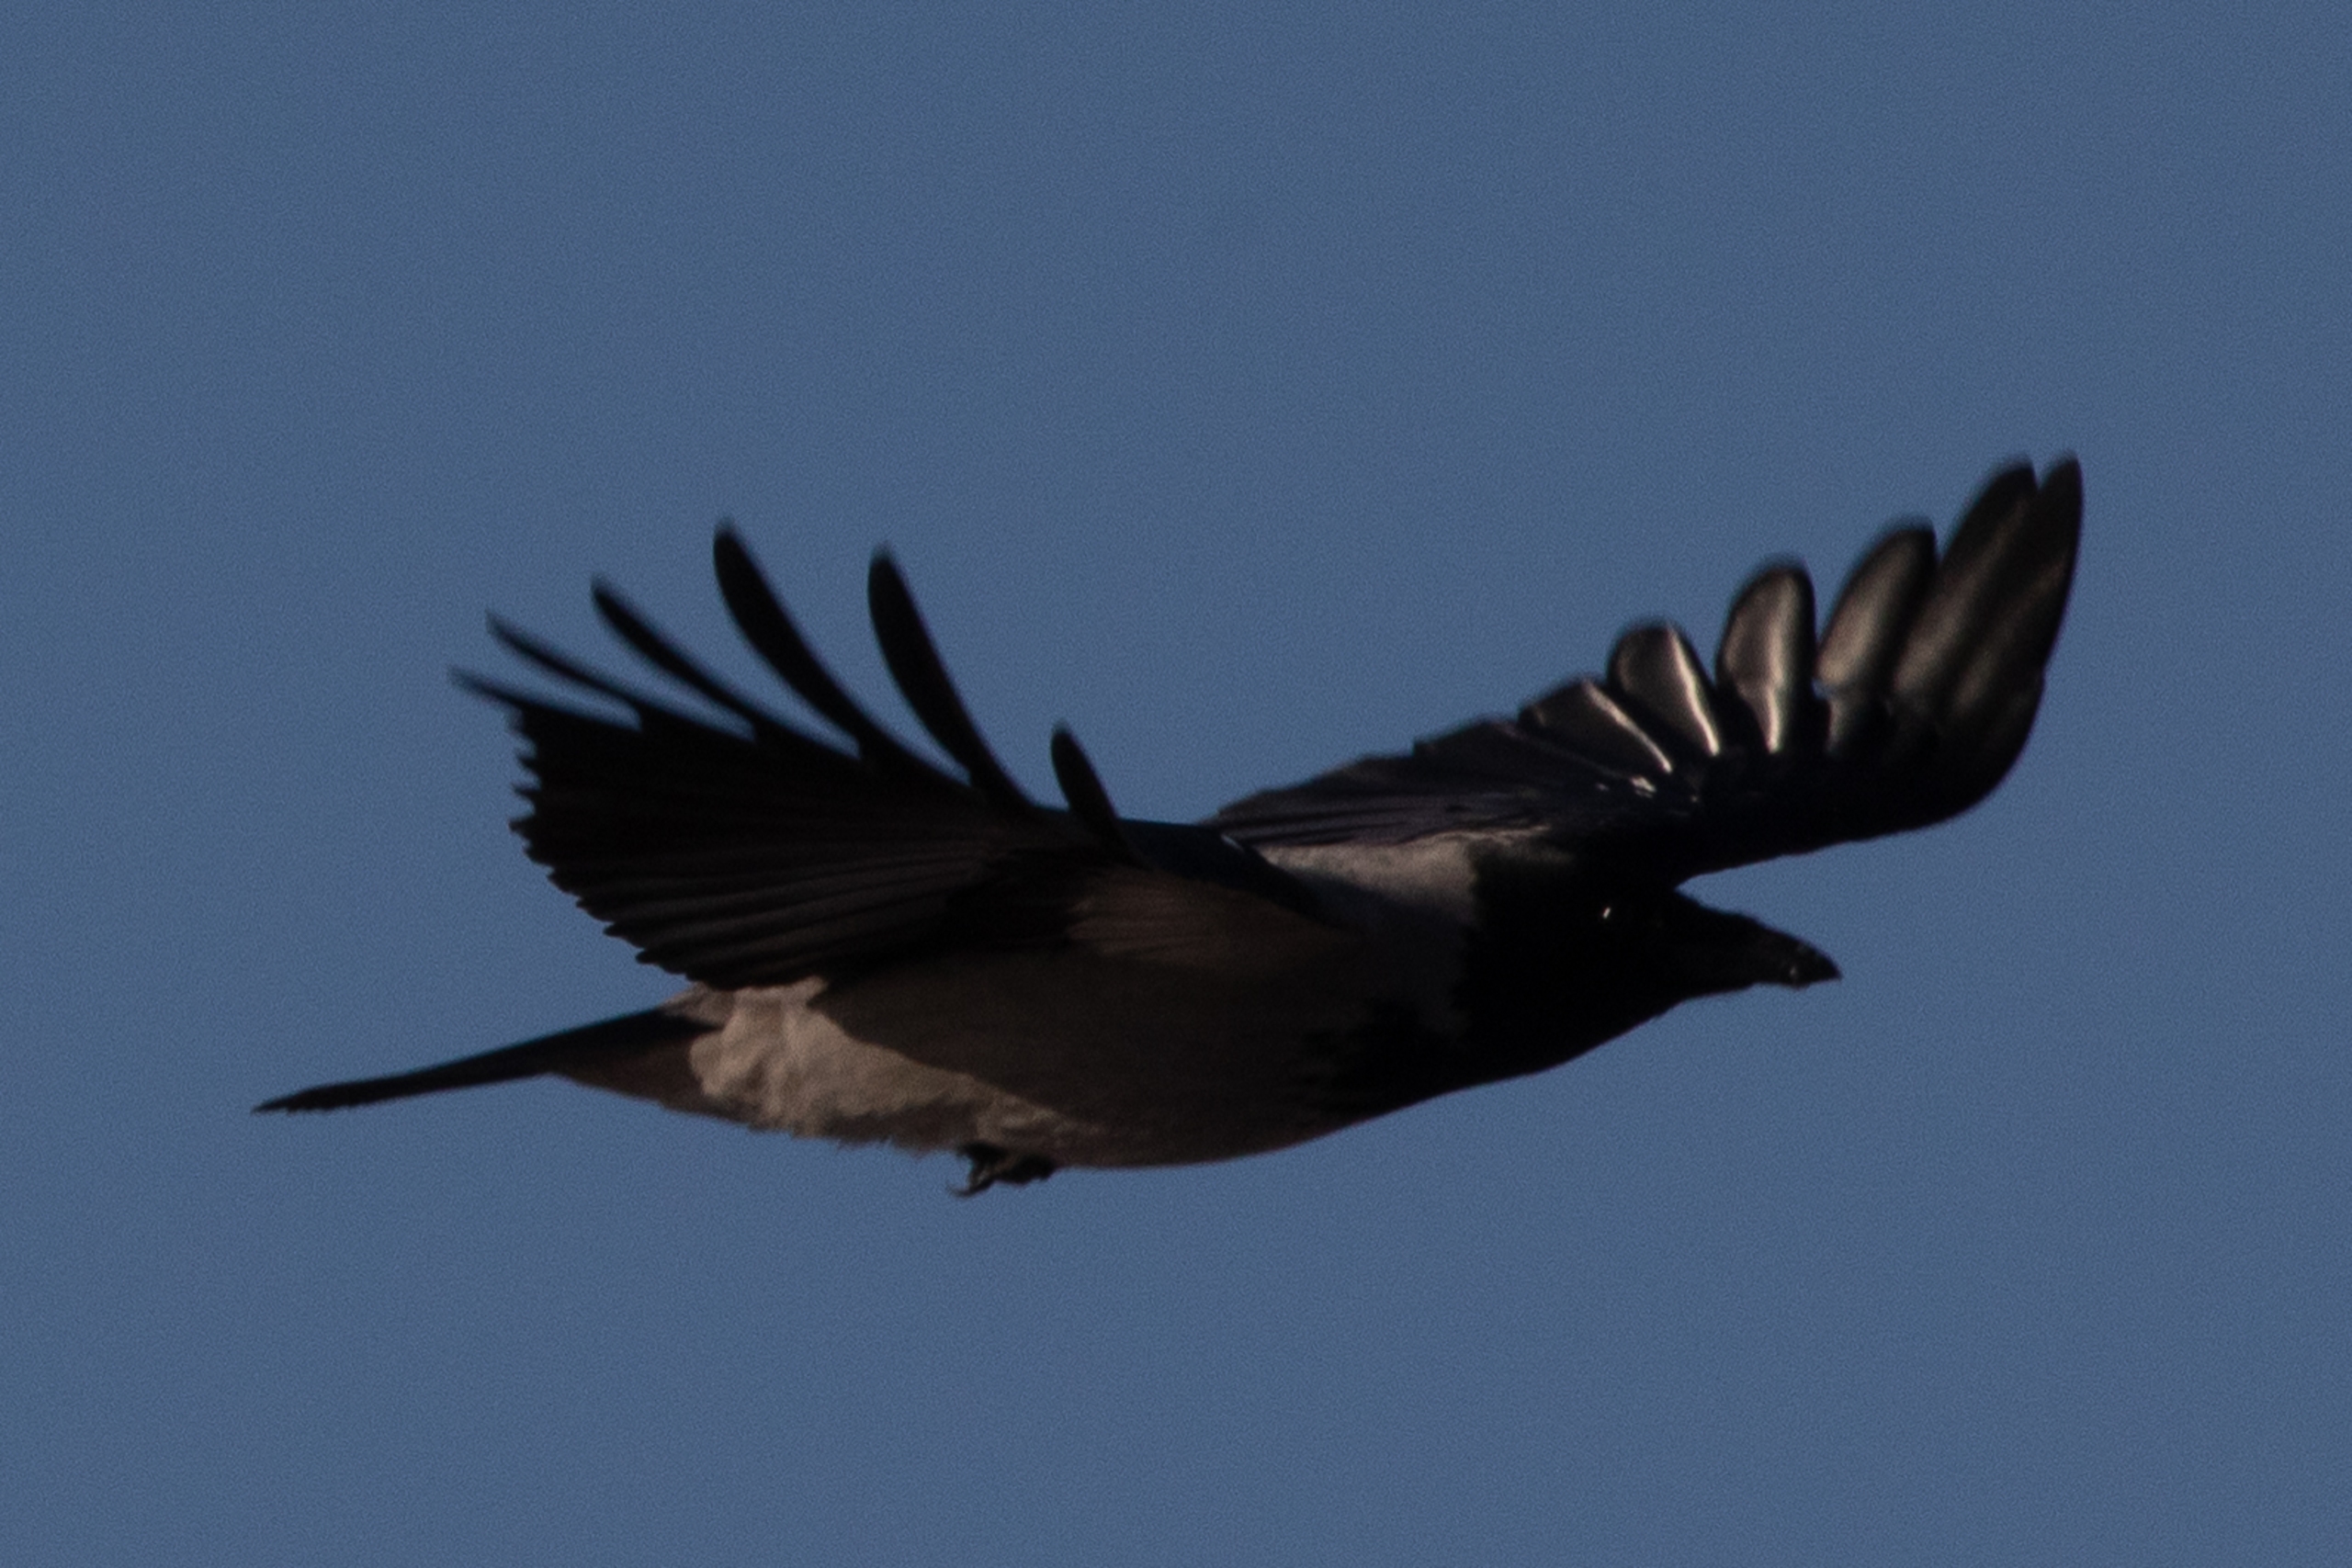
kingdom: Animalia
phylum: Chordata
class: Aves
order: Passeriformes
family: Corvidae
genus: Corvus
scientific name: Corvus cornix
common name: Gråkrage
